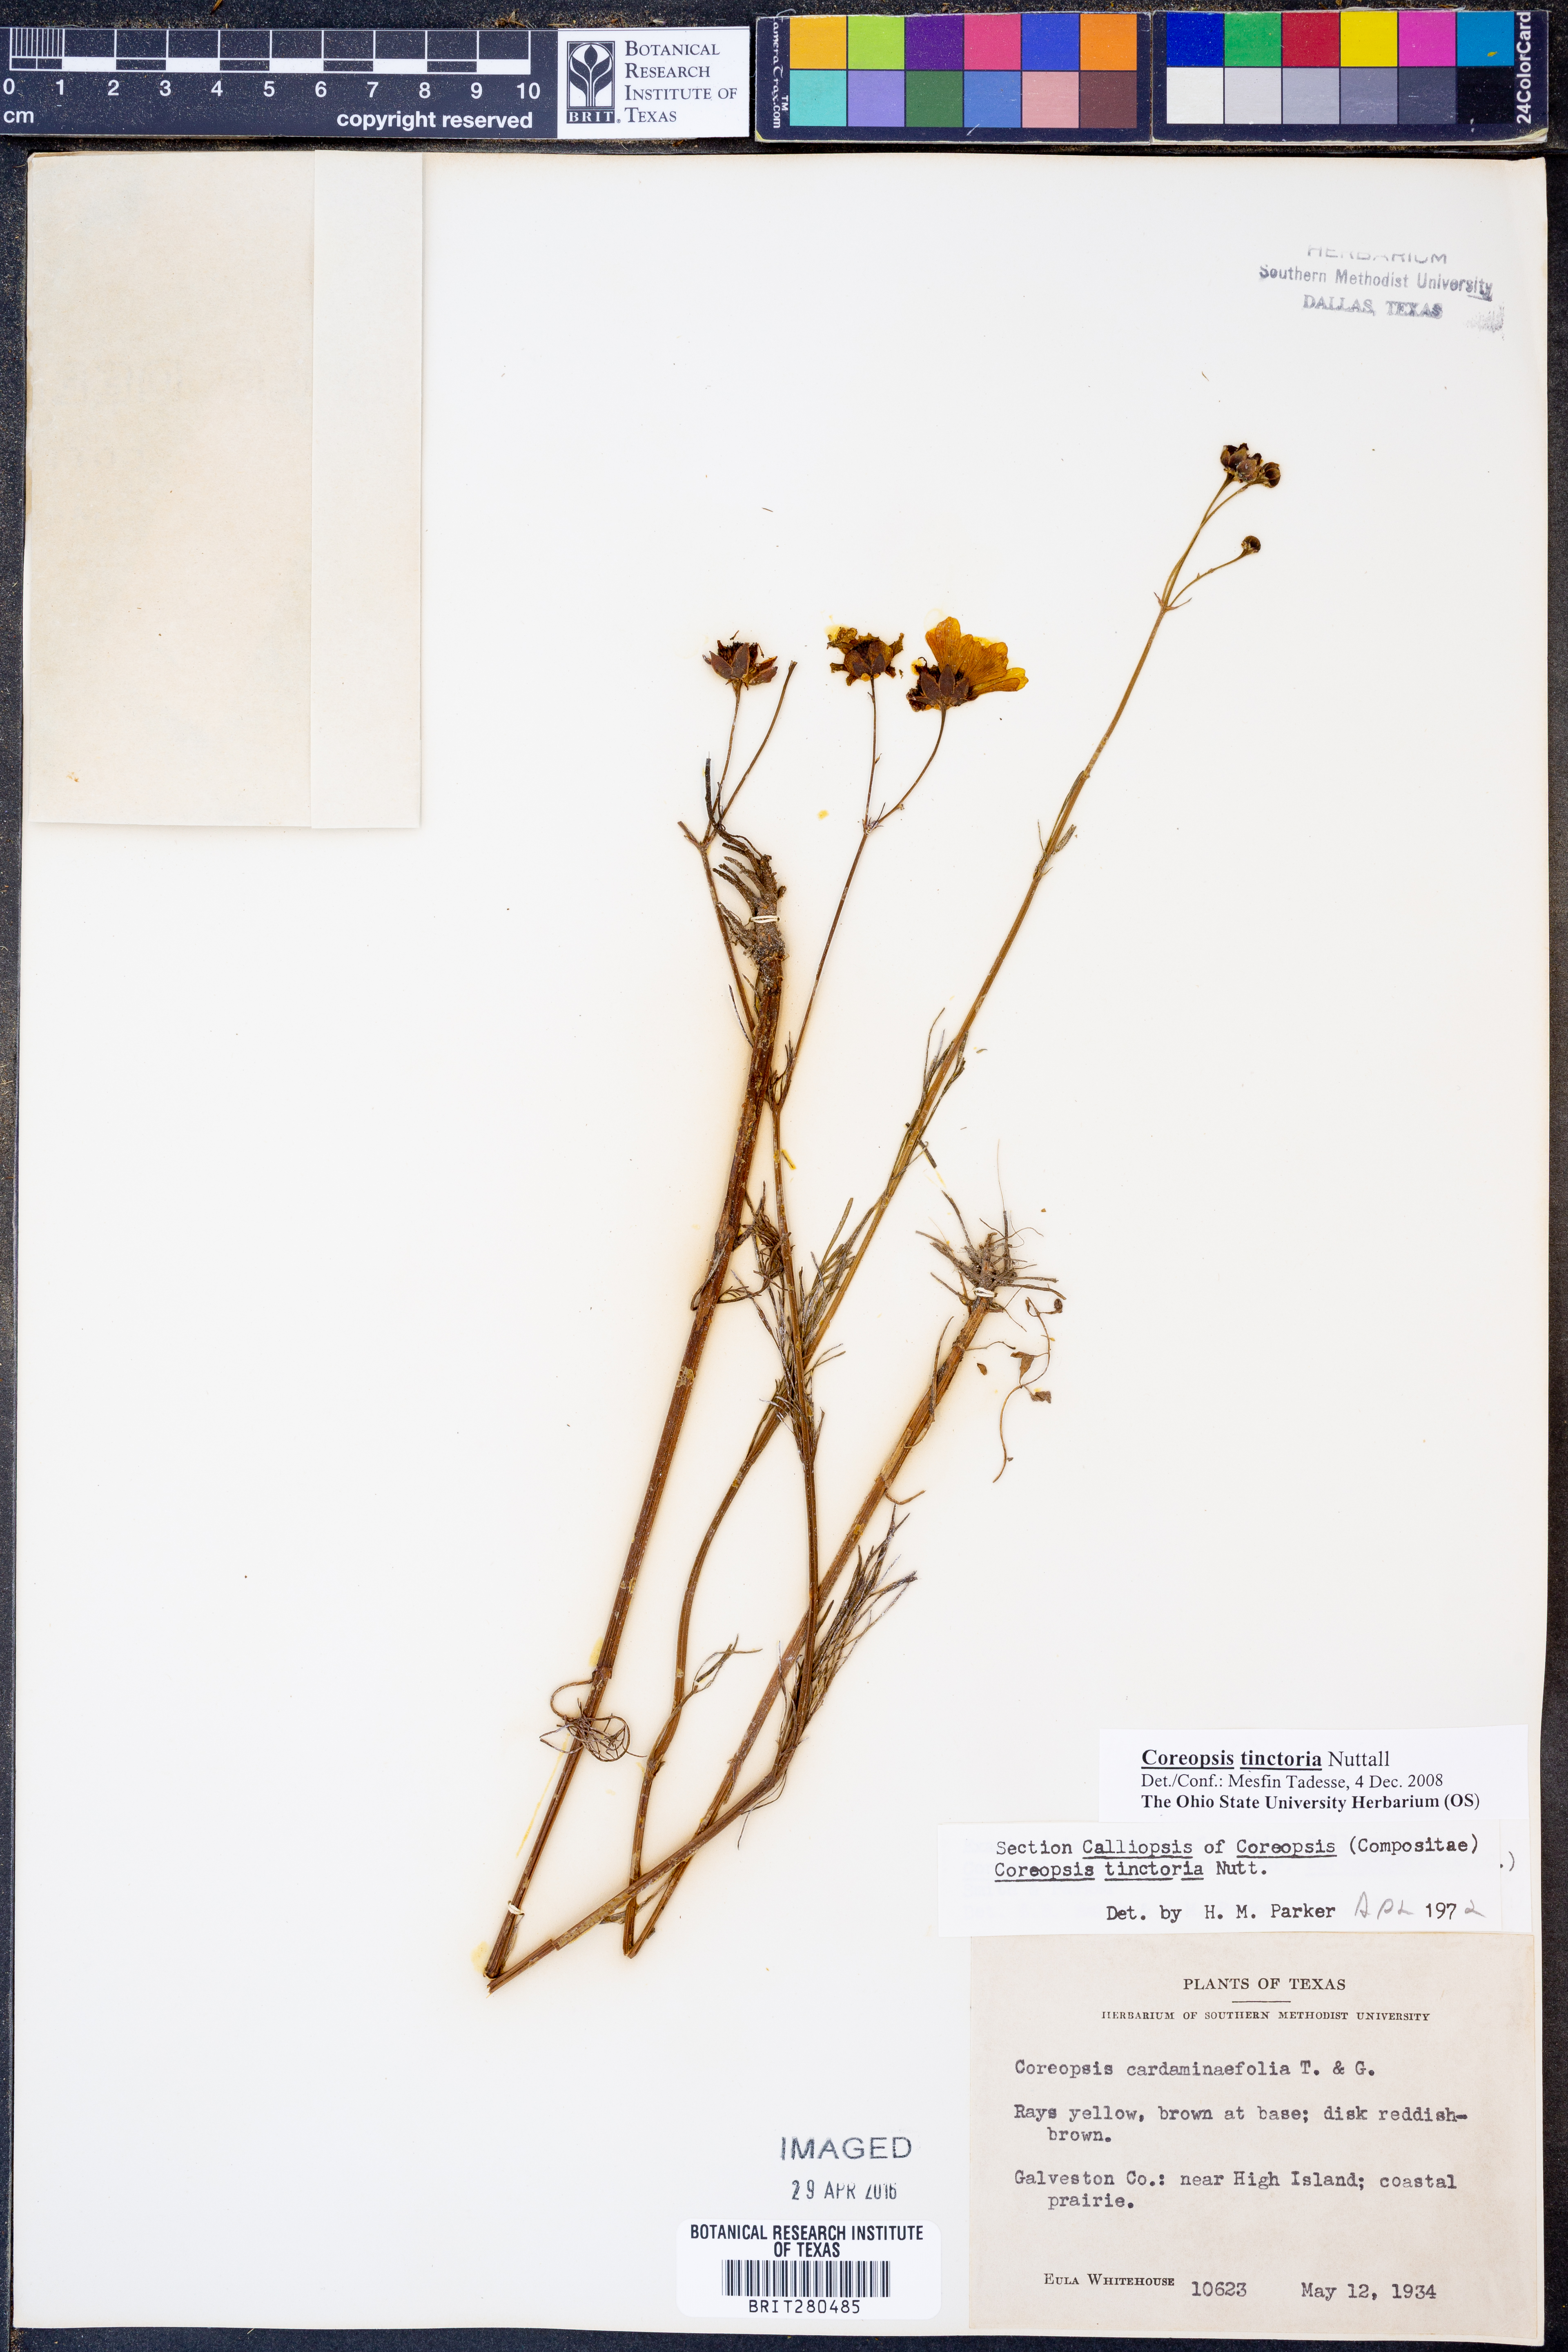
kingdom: Plantae
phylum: Tracheophyta
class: Magnoliopsida
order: Asterales
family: Asteraceae
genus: Coreopsis
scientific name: Coreopsis tinctoria
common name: Garden tickseed
